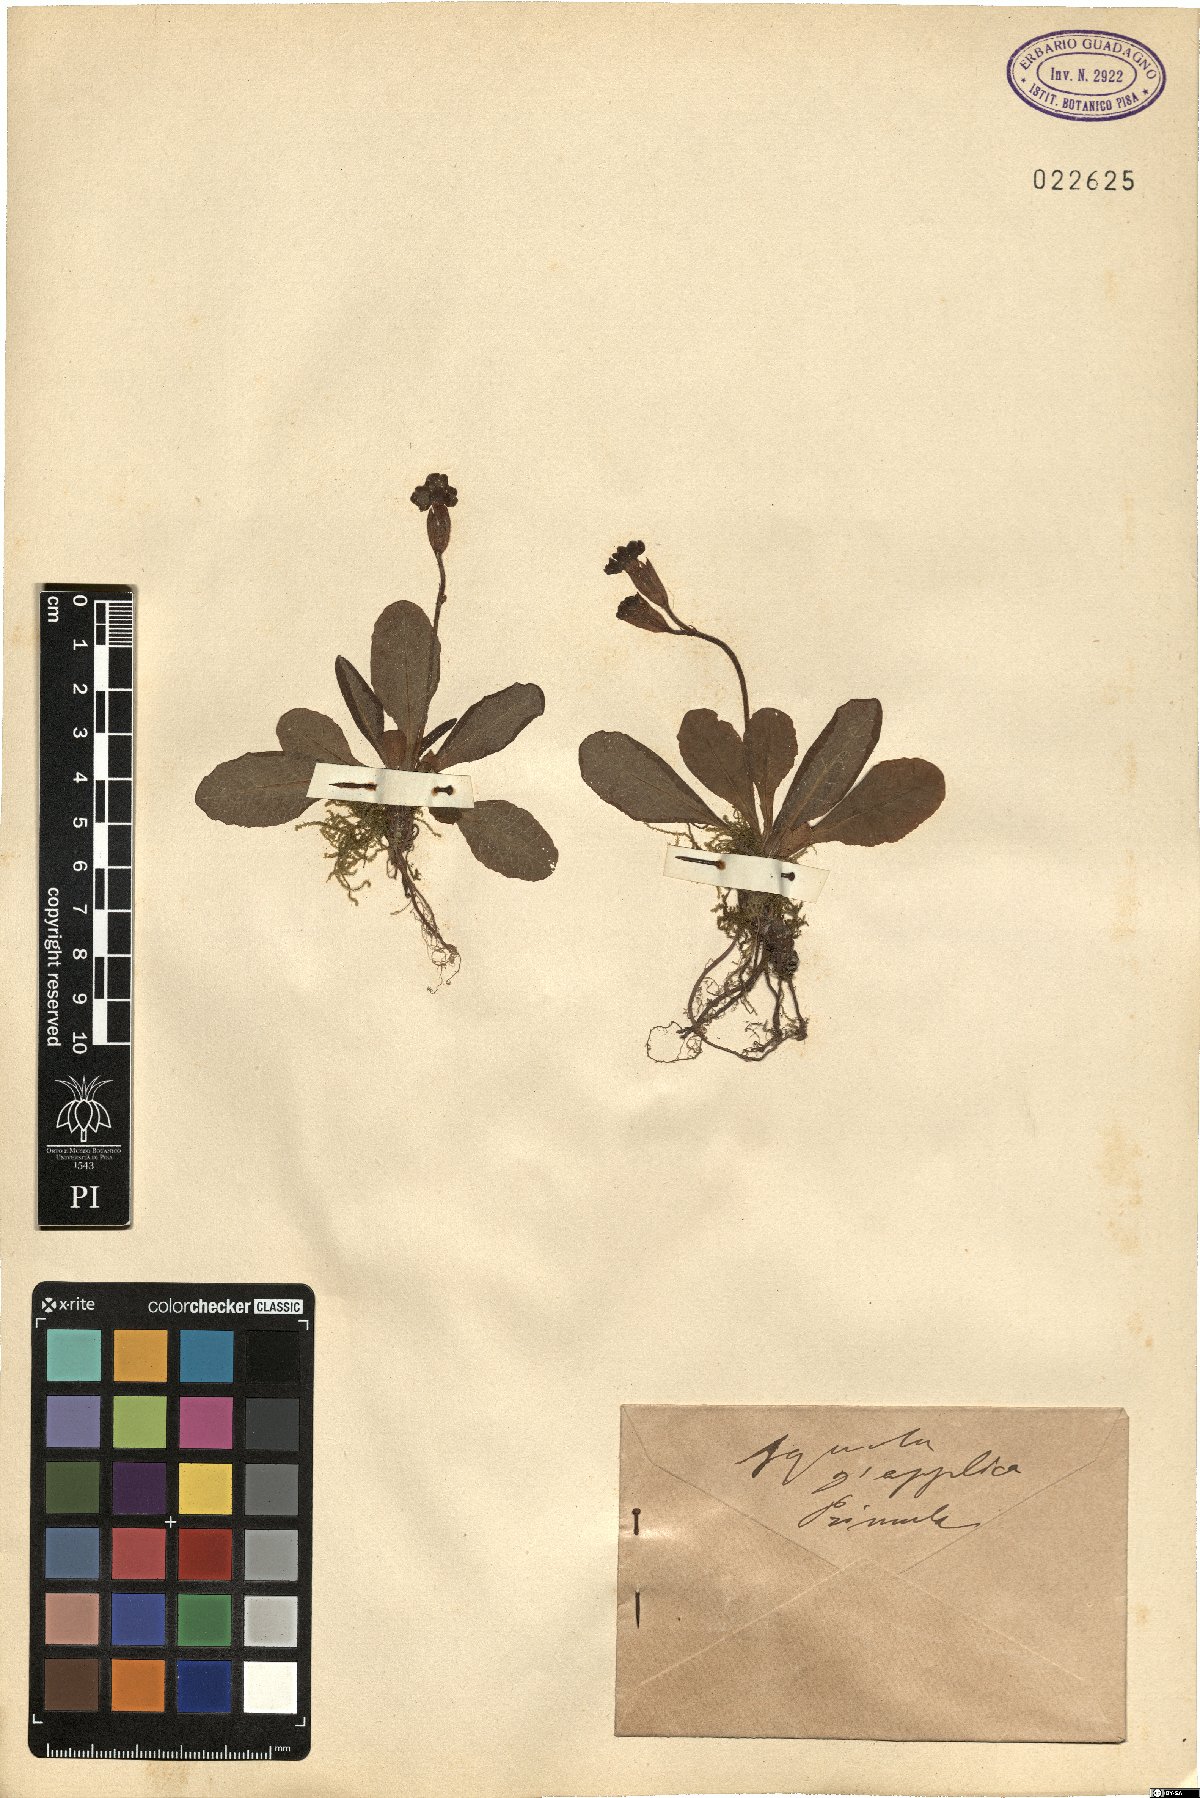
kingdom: Plantae
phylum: Tracheophyta
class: Magnoliopsida
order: Ericales
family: Primulaceae
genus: Primula
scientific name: Primula
